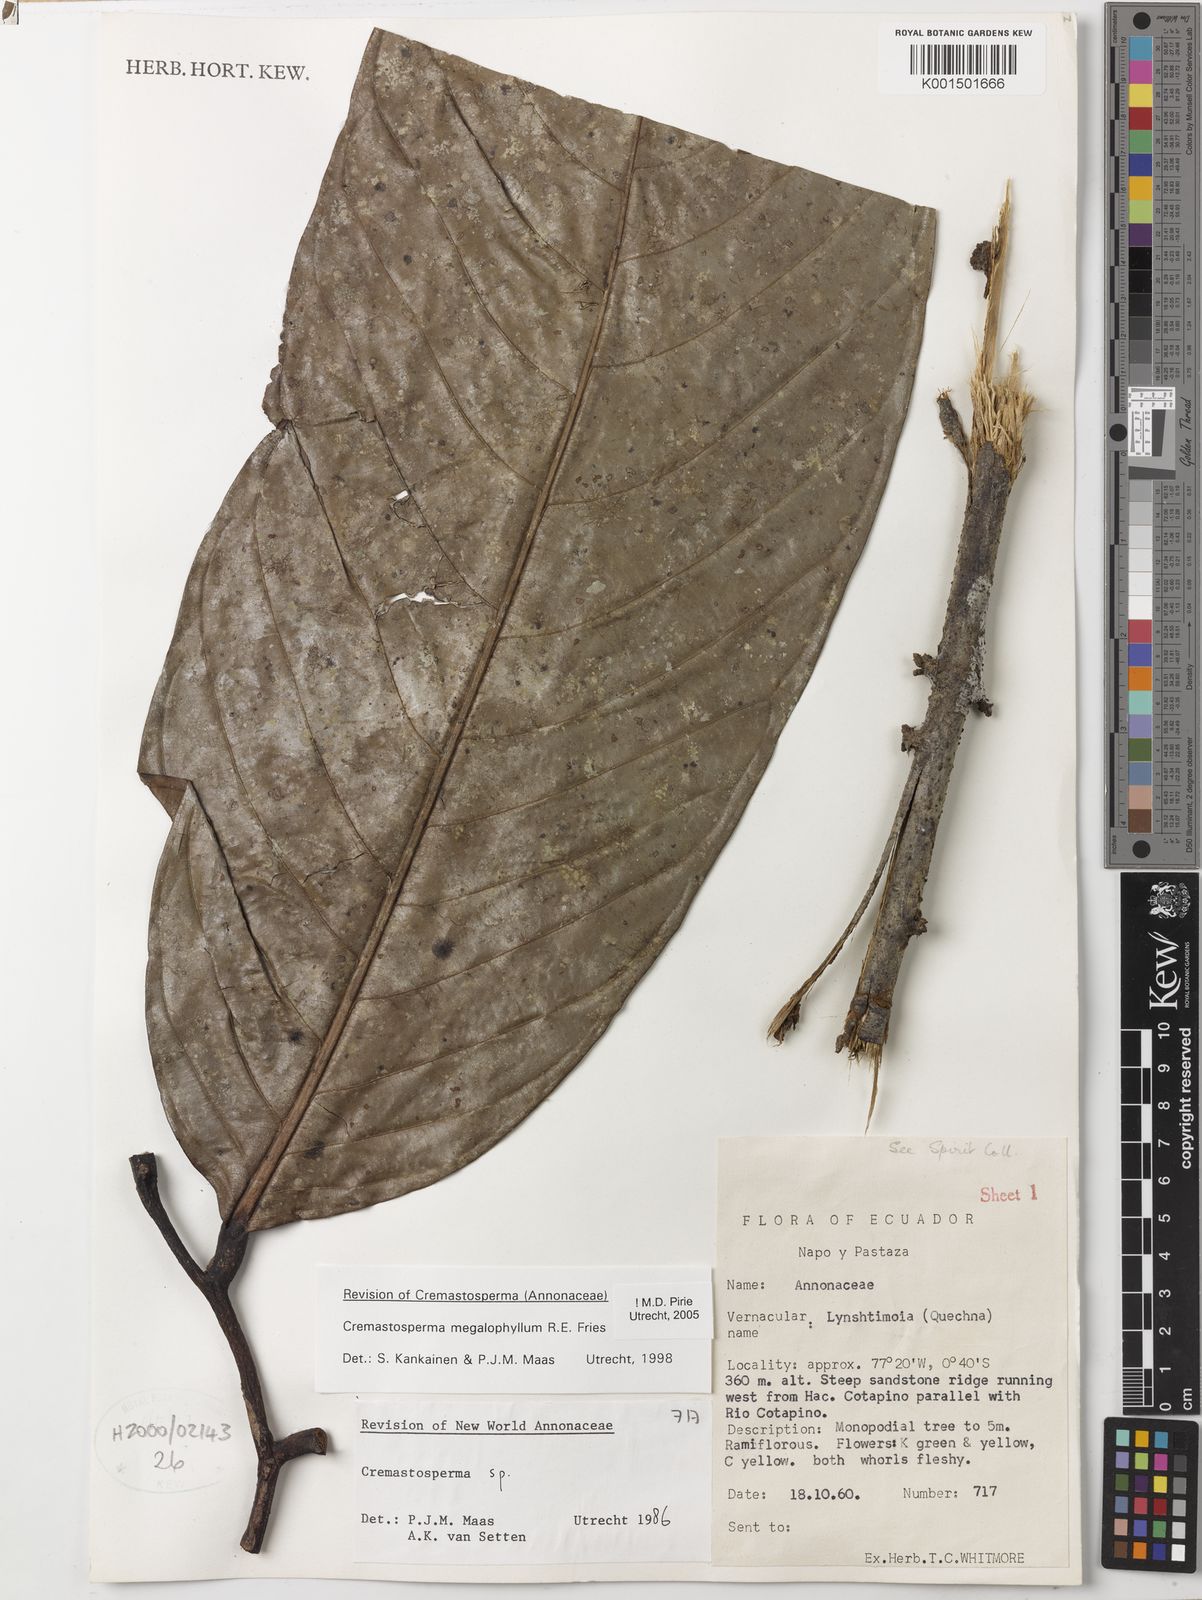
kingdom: Plantae
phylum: Tracheophyta
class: Magnoliopsida
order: Magnoliales
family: Annonaceae
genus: Cremastosperma
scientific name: Cremastosperma megalophyllum
